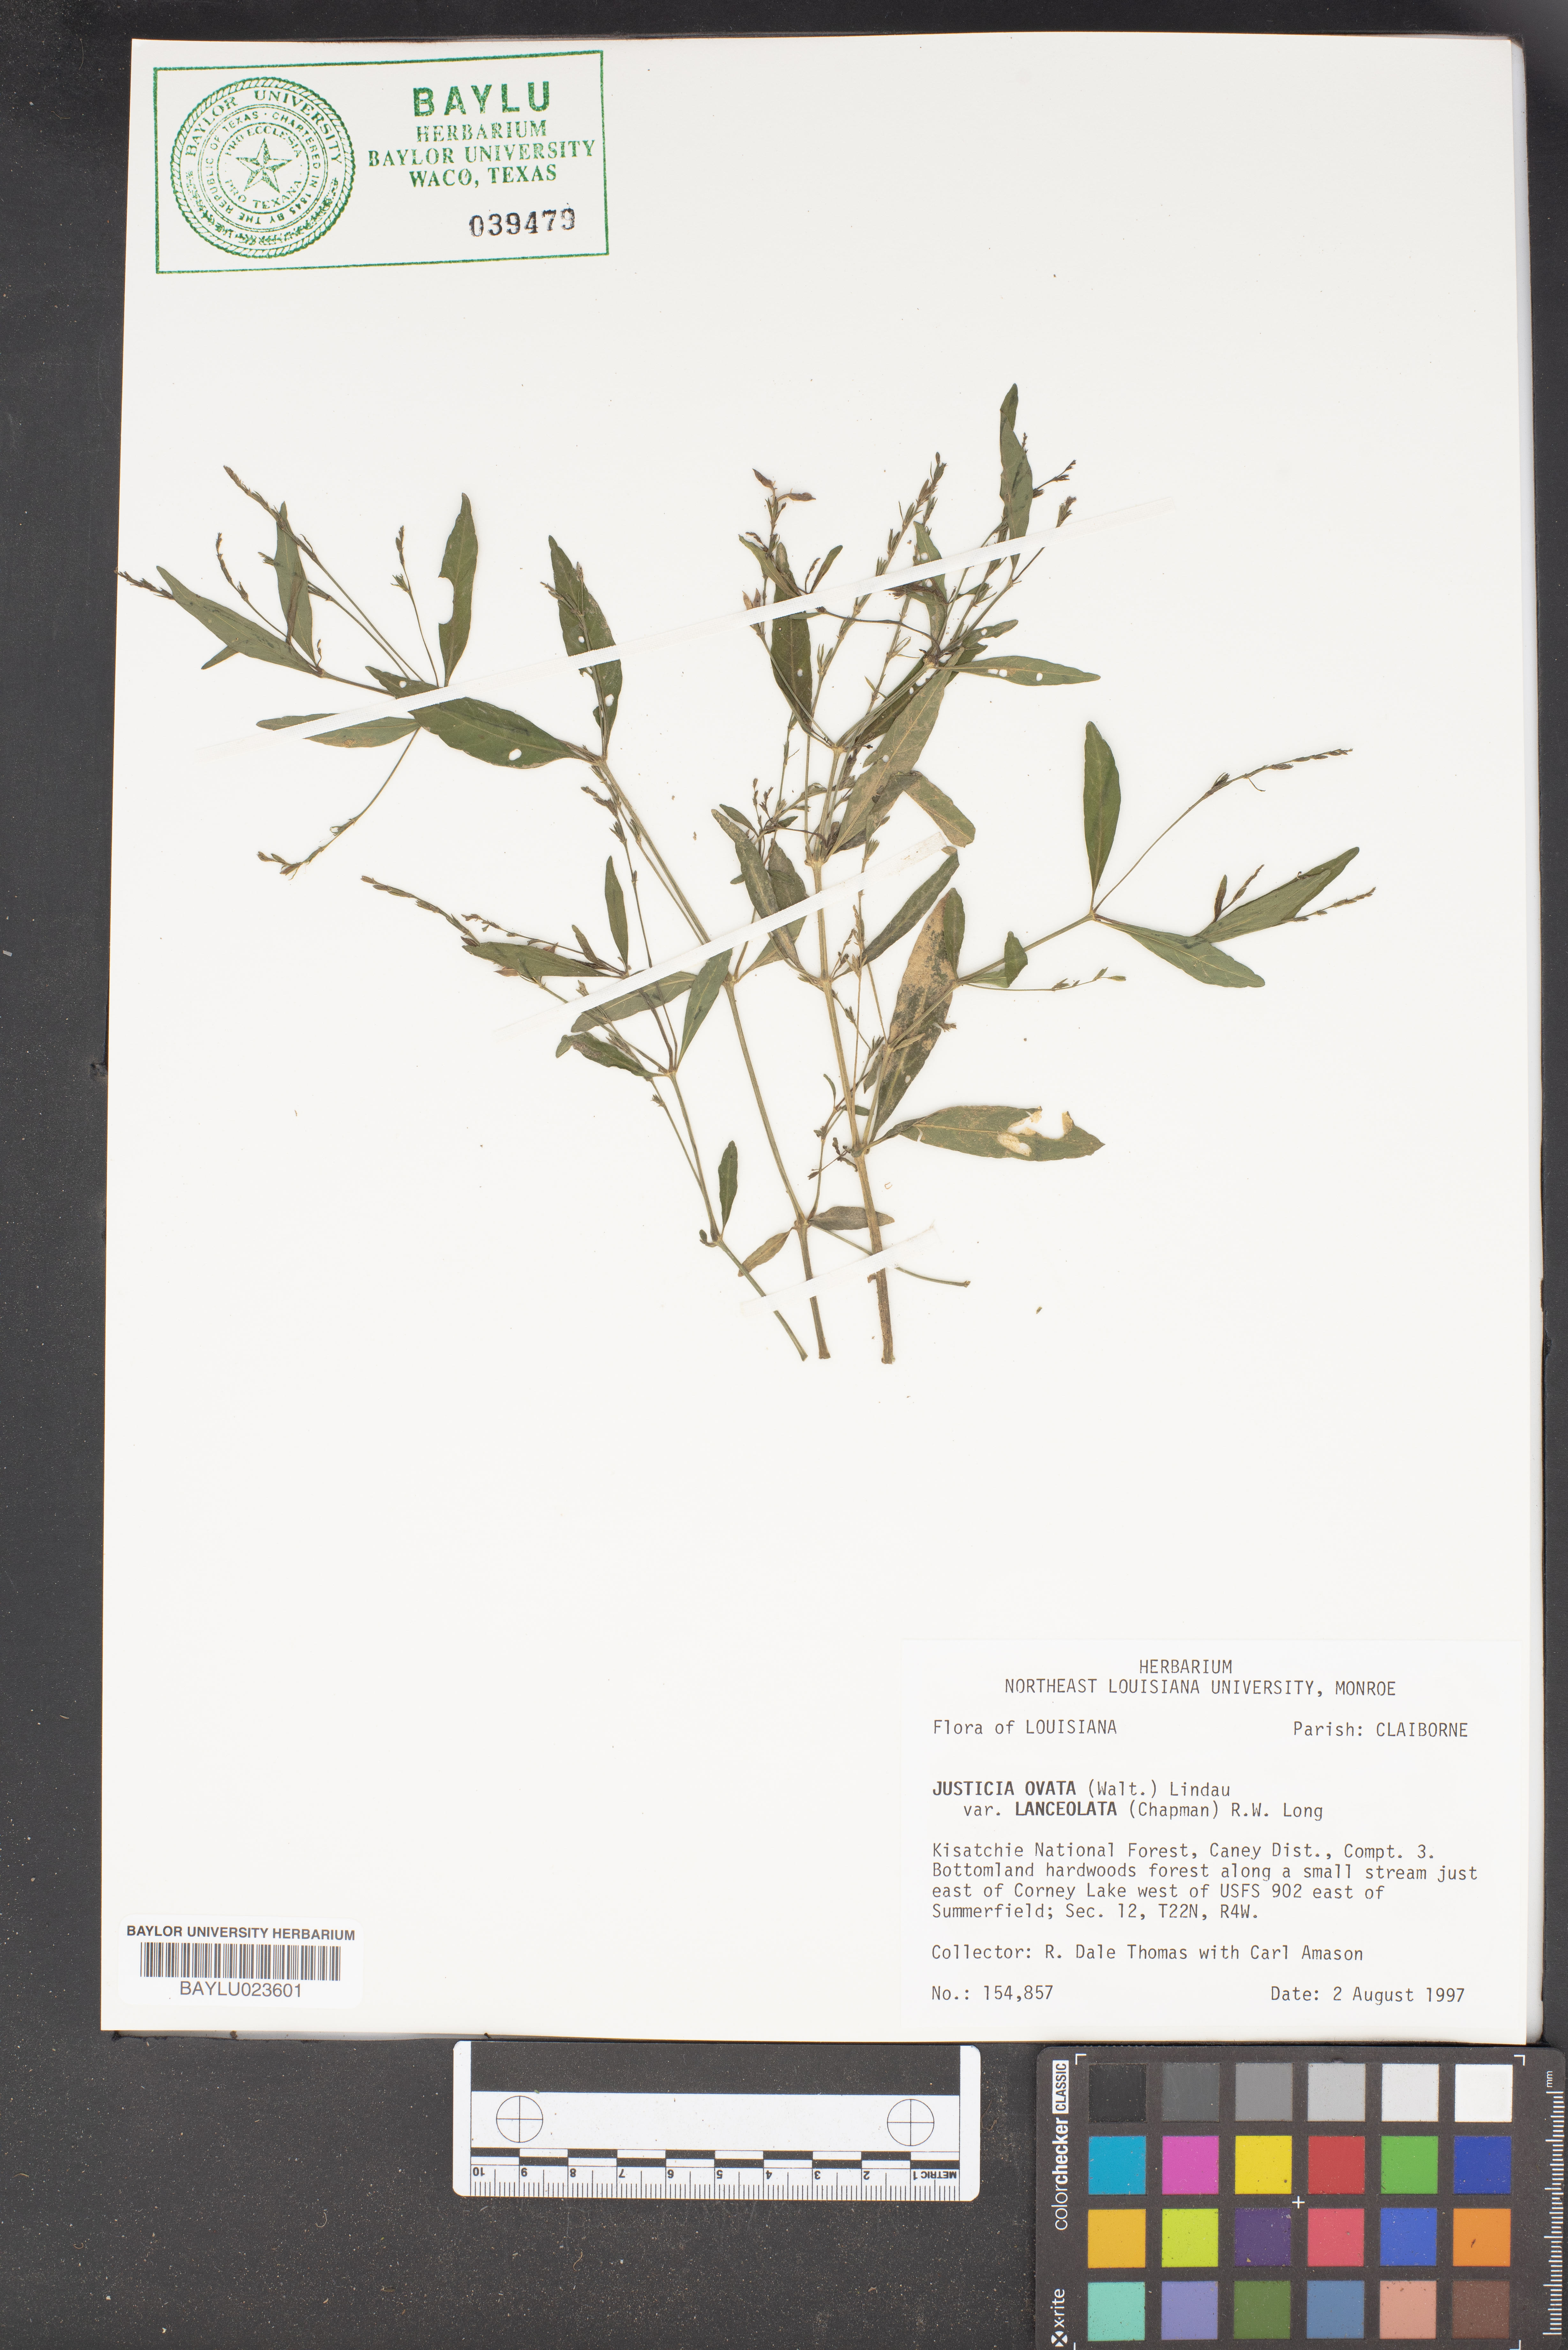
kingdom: Plantae
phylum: Tracheophyta
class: Magnoliopsida
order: Lamiales
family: Acanthaceae
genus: Justicia
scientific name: Justicia lanceolata
